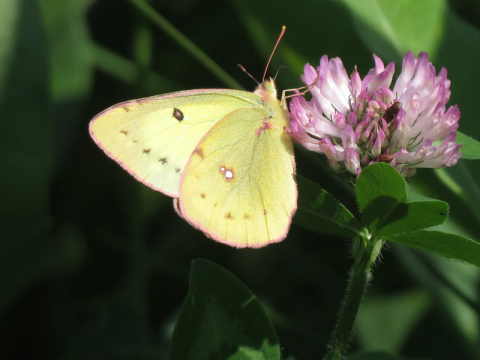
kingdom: Animalia
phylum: Arthropoda
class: Insecta
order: Lepidoptera
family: Pieridae
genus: Colias
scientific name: Colias philodice
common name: Clouded Sulphur
